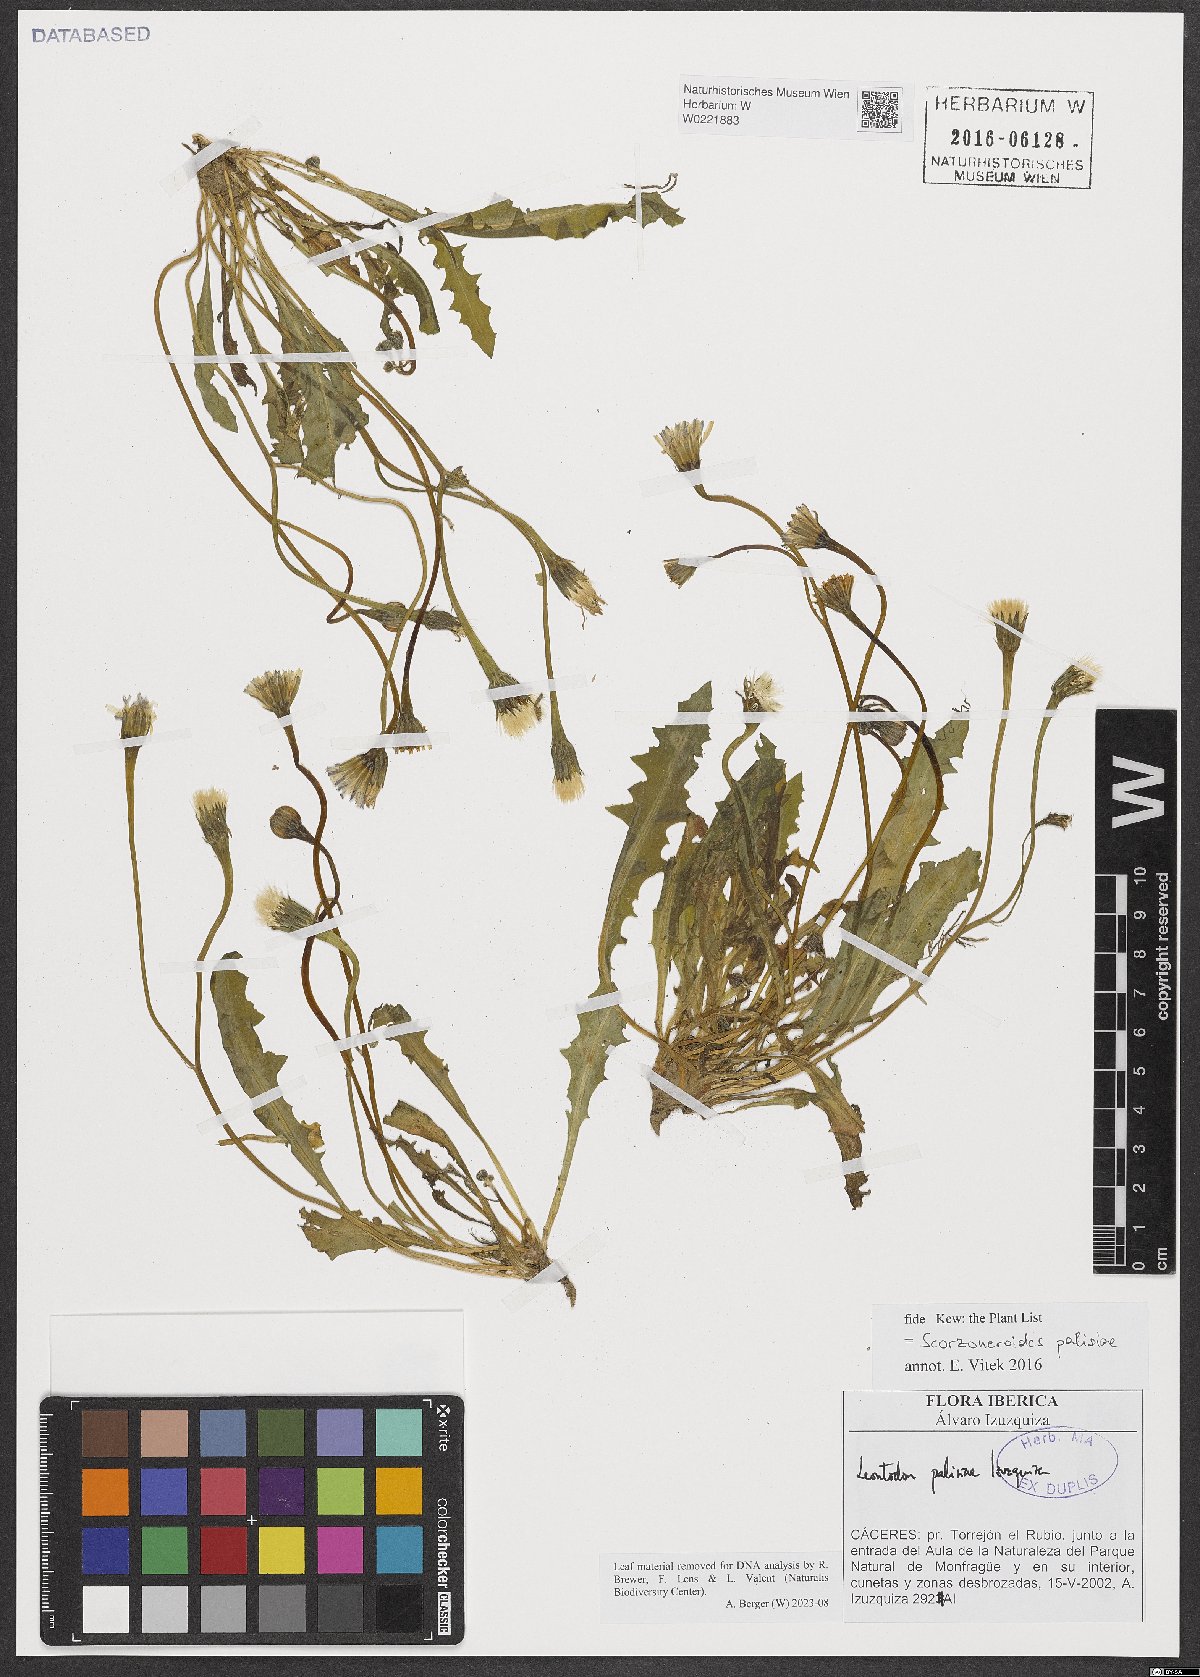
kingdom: Plantae
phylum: Tracheophyta
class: Magnoliopsida
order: Asterales
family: Asteraceae
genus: Scorzoneroides
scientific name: Scorzoneroides palisiae
